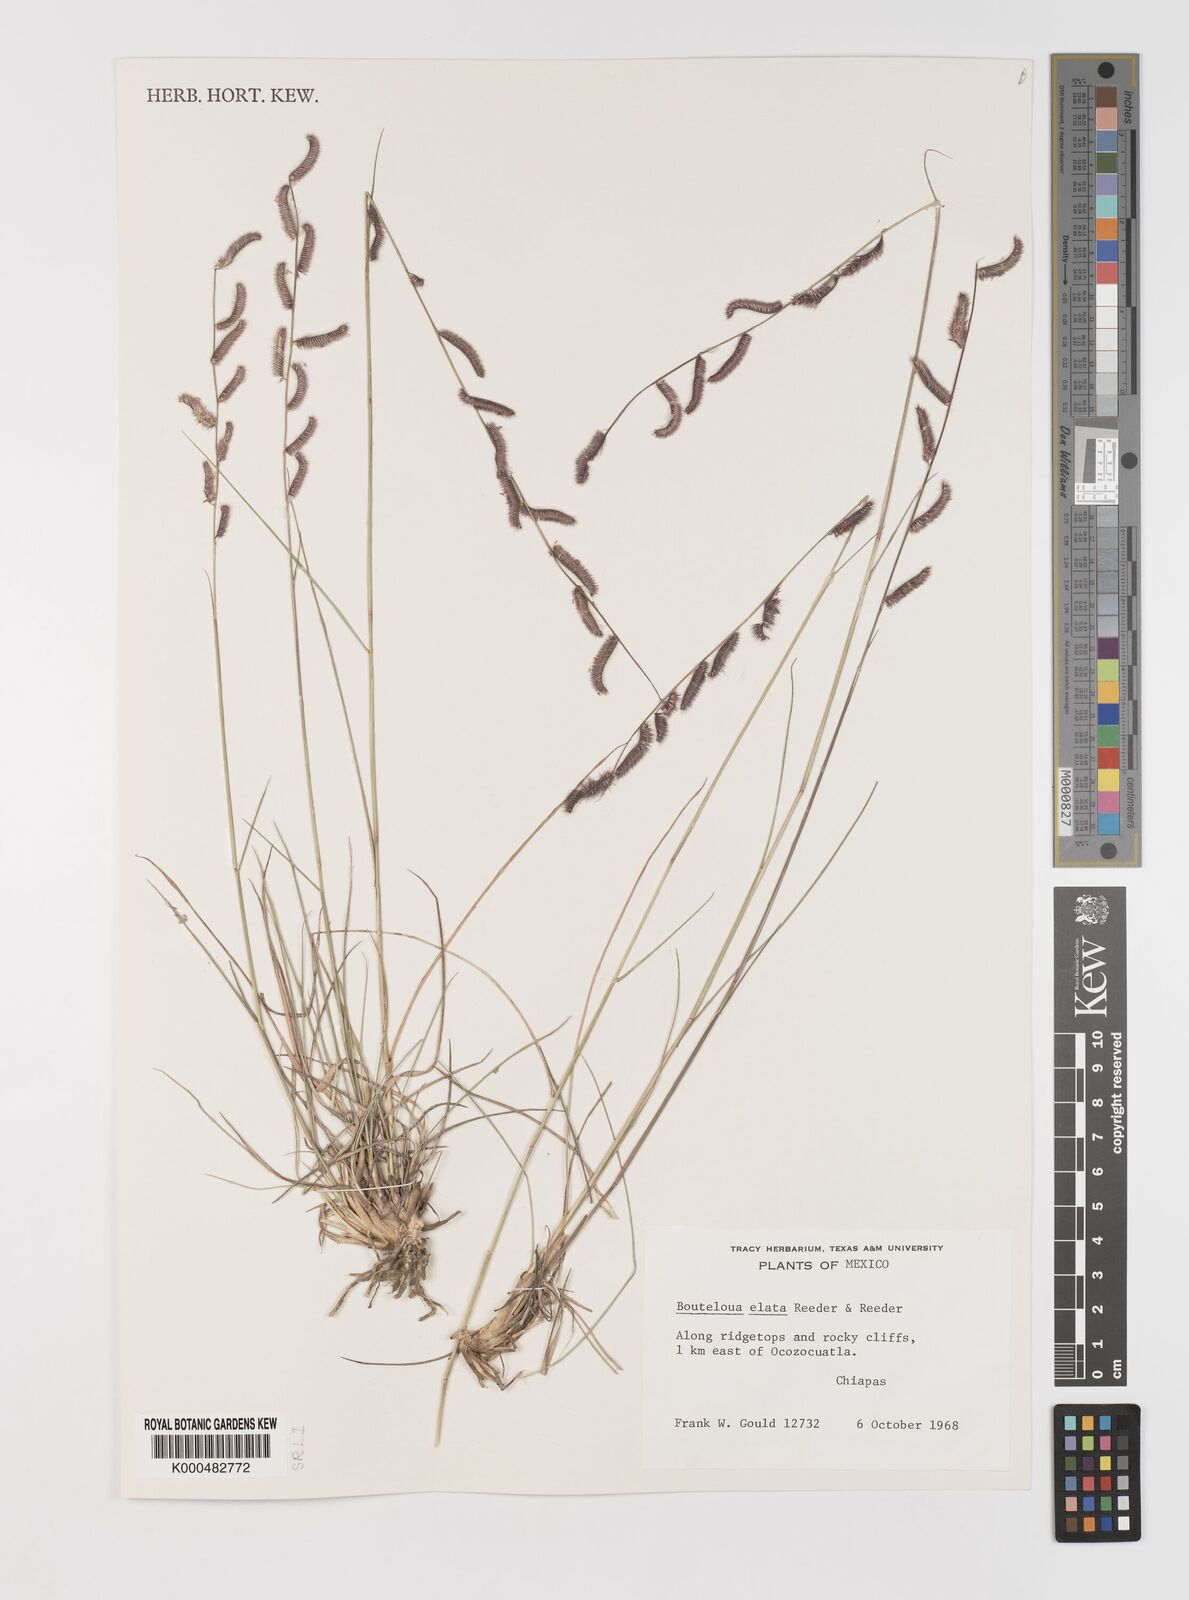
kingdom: Plantae
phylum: Tracheophyta
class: Liliopsida
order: Poales
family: Poaceae
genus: Bouteloua
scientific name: Bouteloua elata
